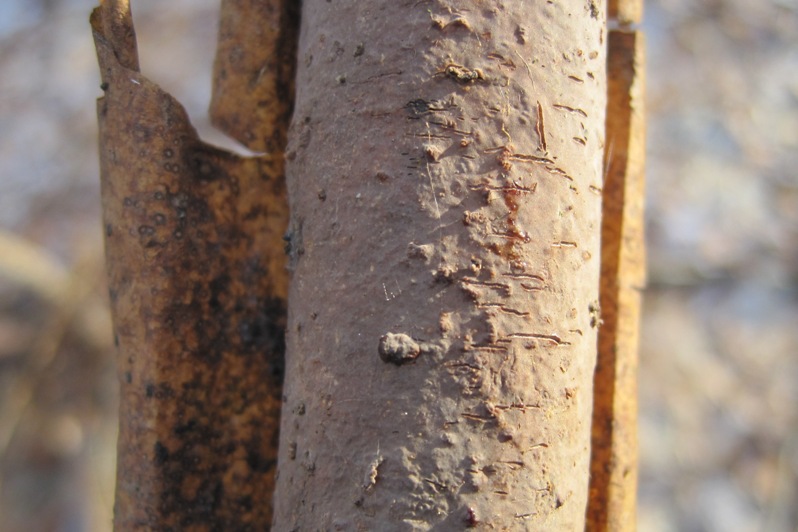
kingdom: Fungi
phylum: Basidiomycota
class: Agaricomycetes
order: Corticiales
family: Vuilleminiaceae
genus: Vuilleminia
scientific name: Vuilleminia comedens
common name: almindelig barksprænger
